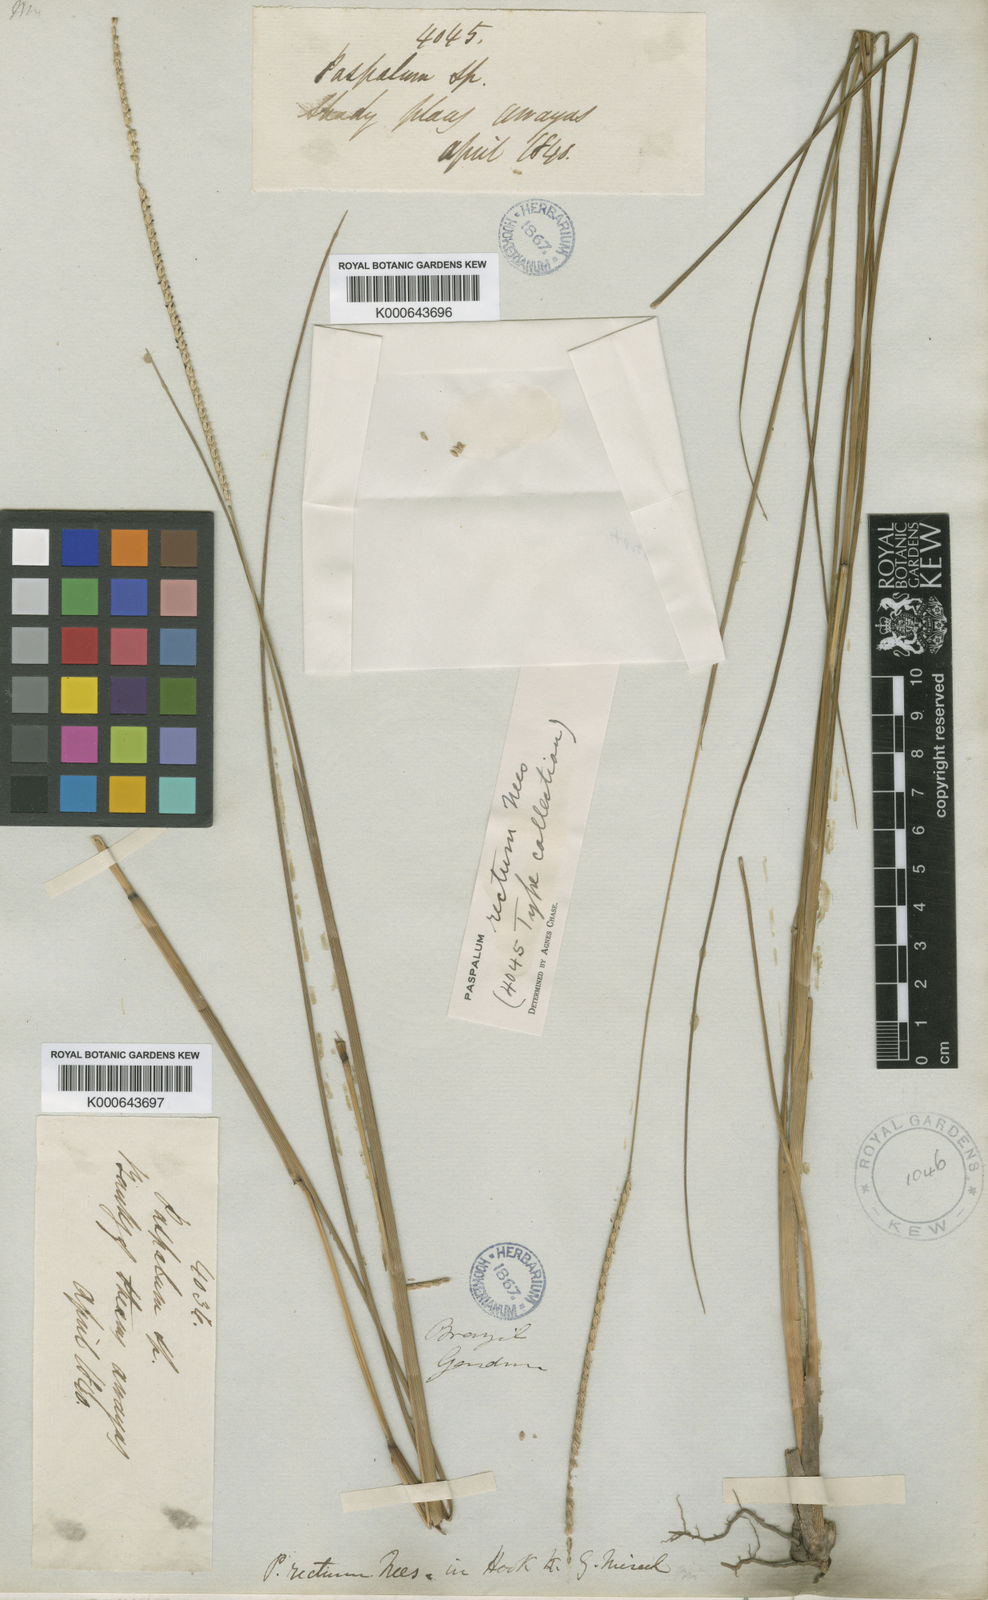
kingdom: Plantae
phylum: Tracheophyta
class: Liliopsida
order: Poales
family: Poaceae
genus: Paspalum
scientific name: Paspalum rectum
